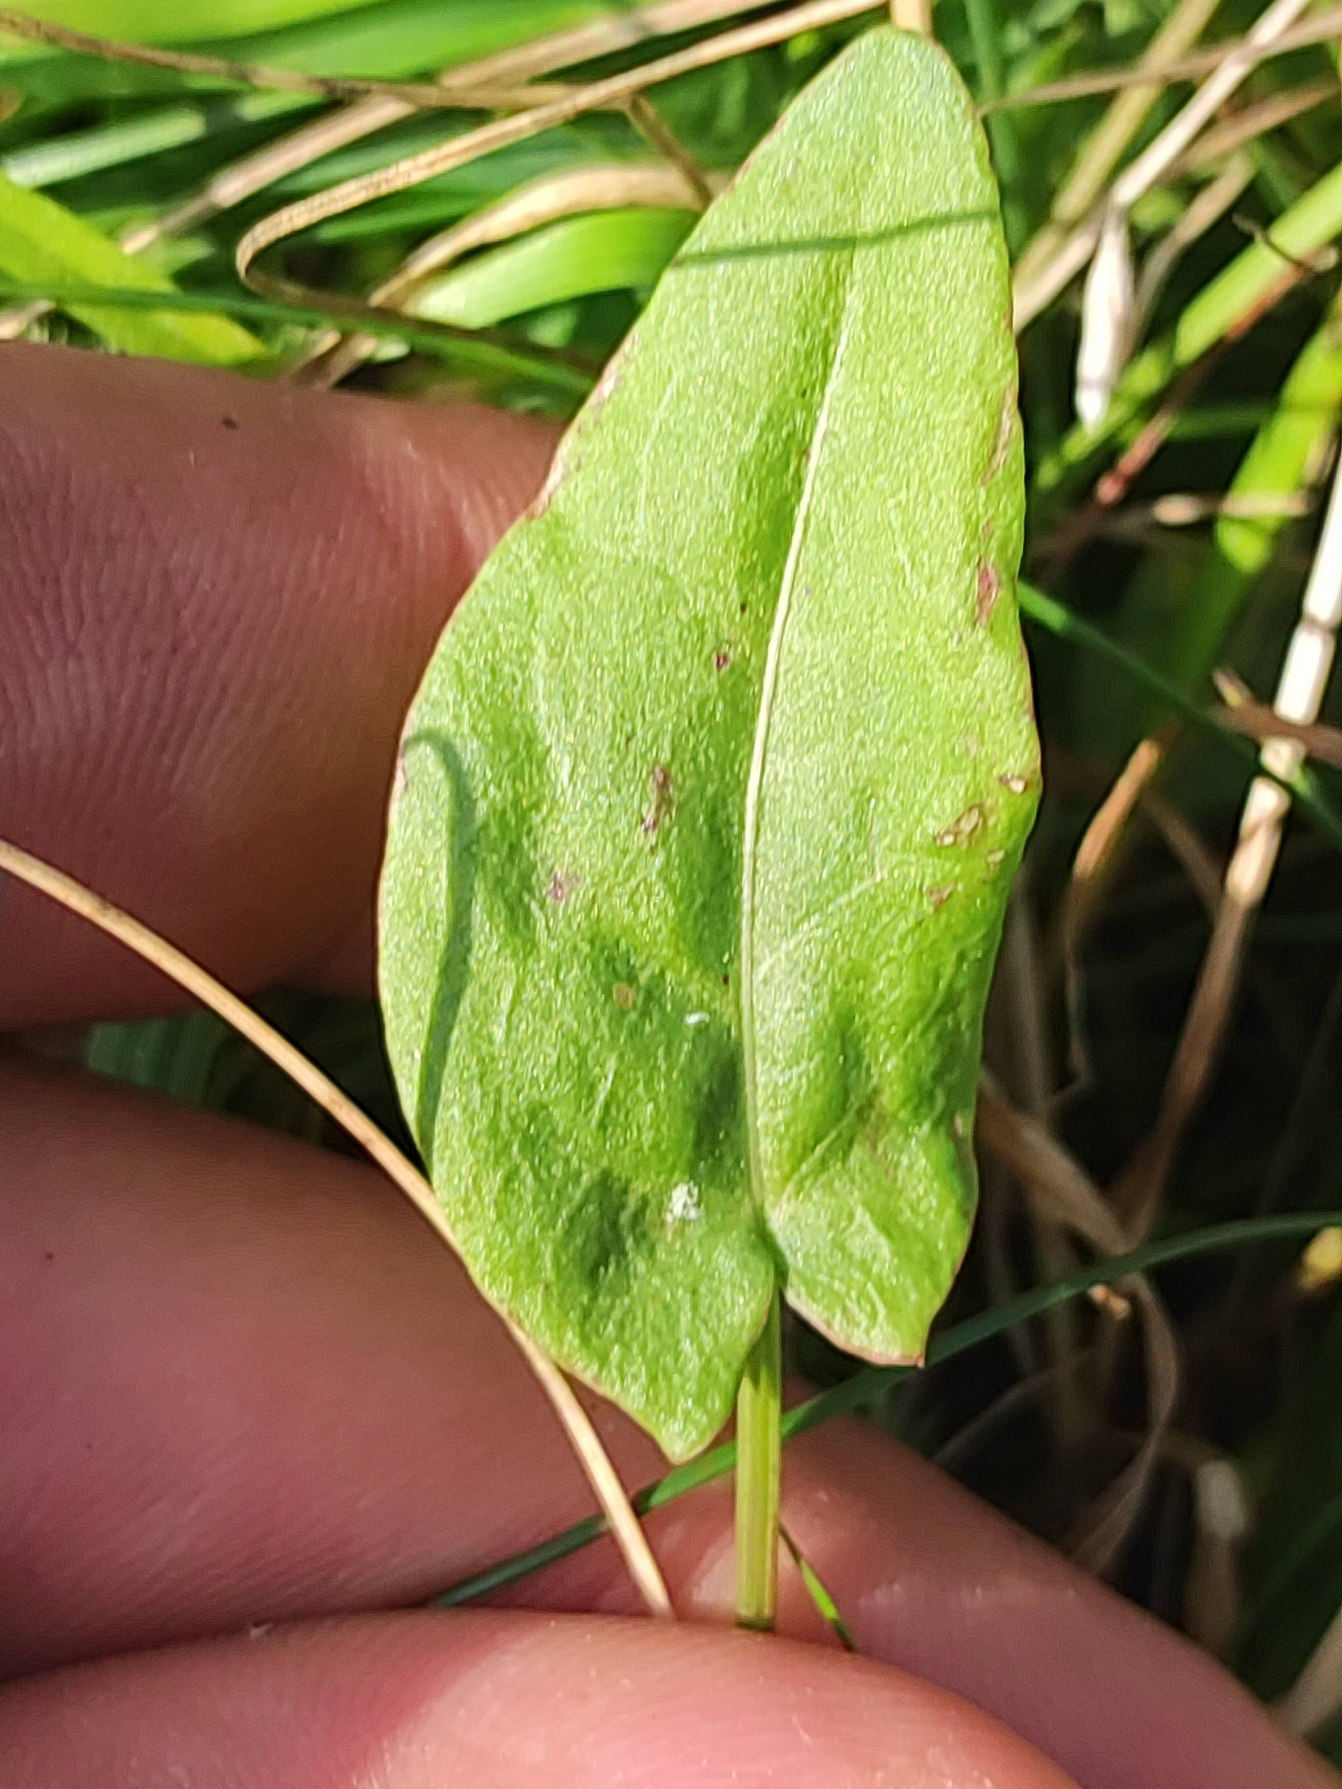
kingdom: Plantae
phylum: Tracheophyta
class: Magnoliopsida
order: Caryophyllales
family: Polygonaceae
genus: Rumex
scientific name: Rumex acetosa
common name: Almindelig syre
